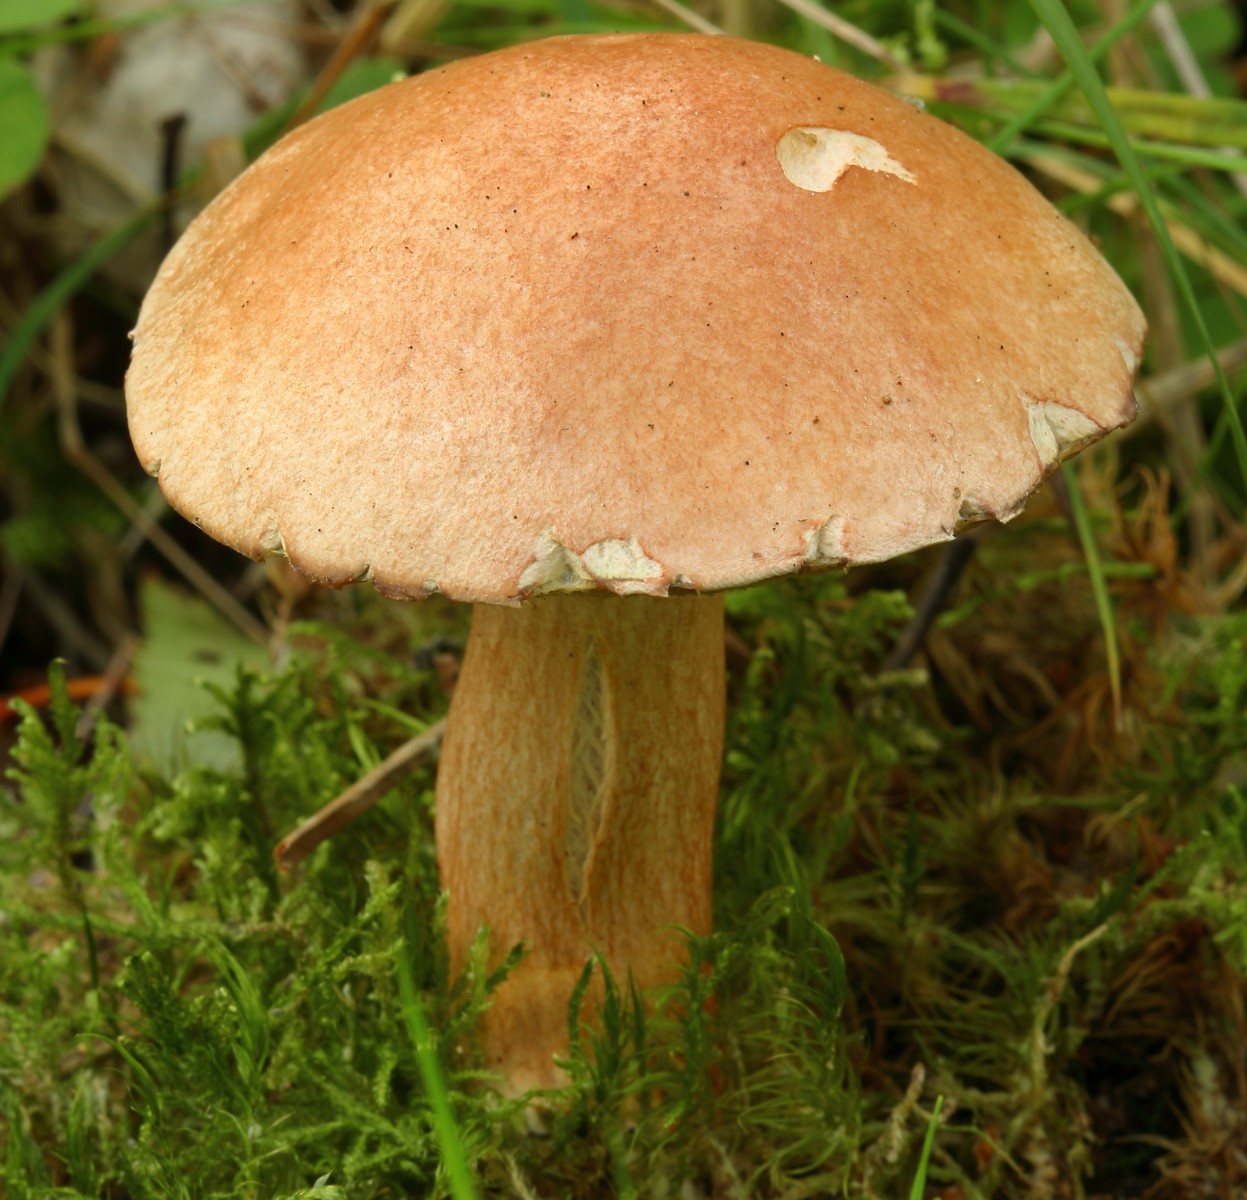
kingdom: Fungi
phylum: Basidiomycota
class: Agaricomycetes
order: Boletales
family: Suillaceae
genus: Suillus
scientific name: Suillus bovinus
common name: grovporet slimrørhat
